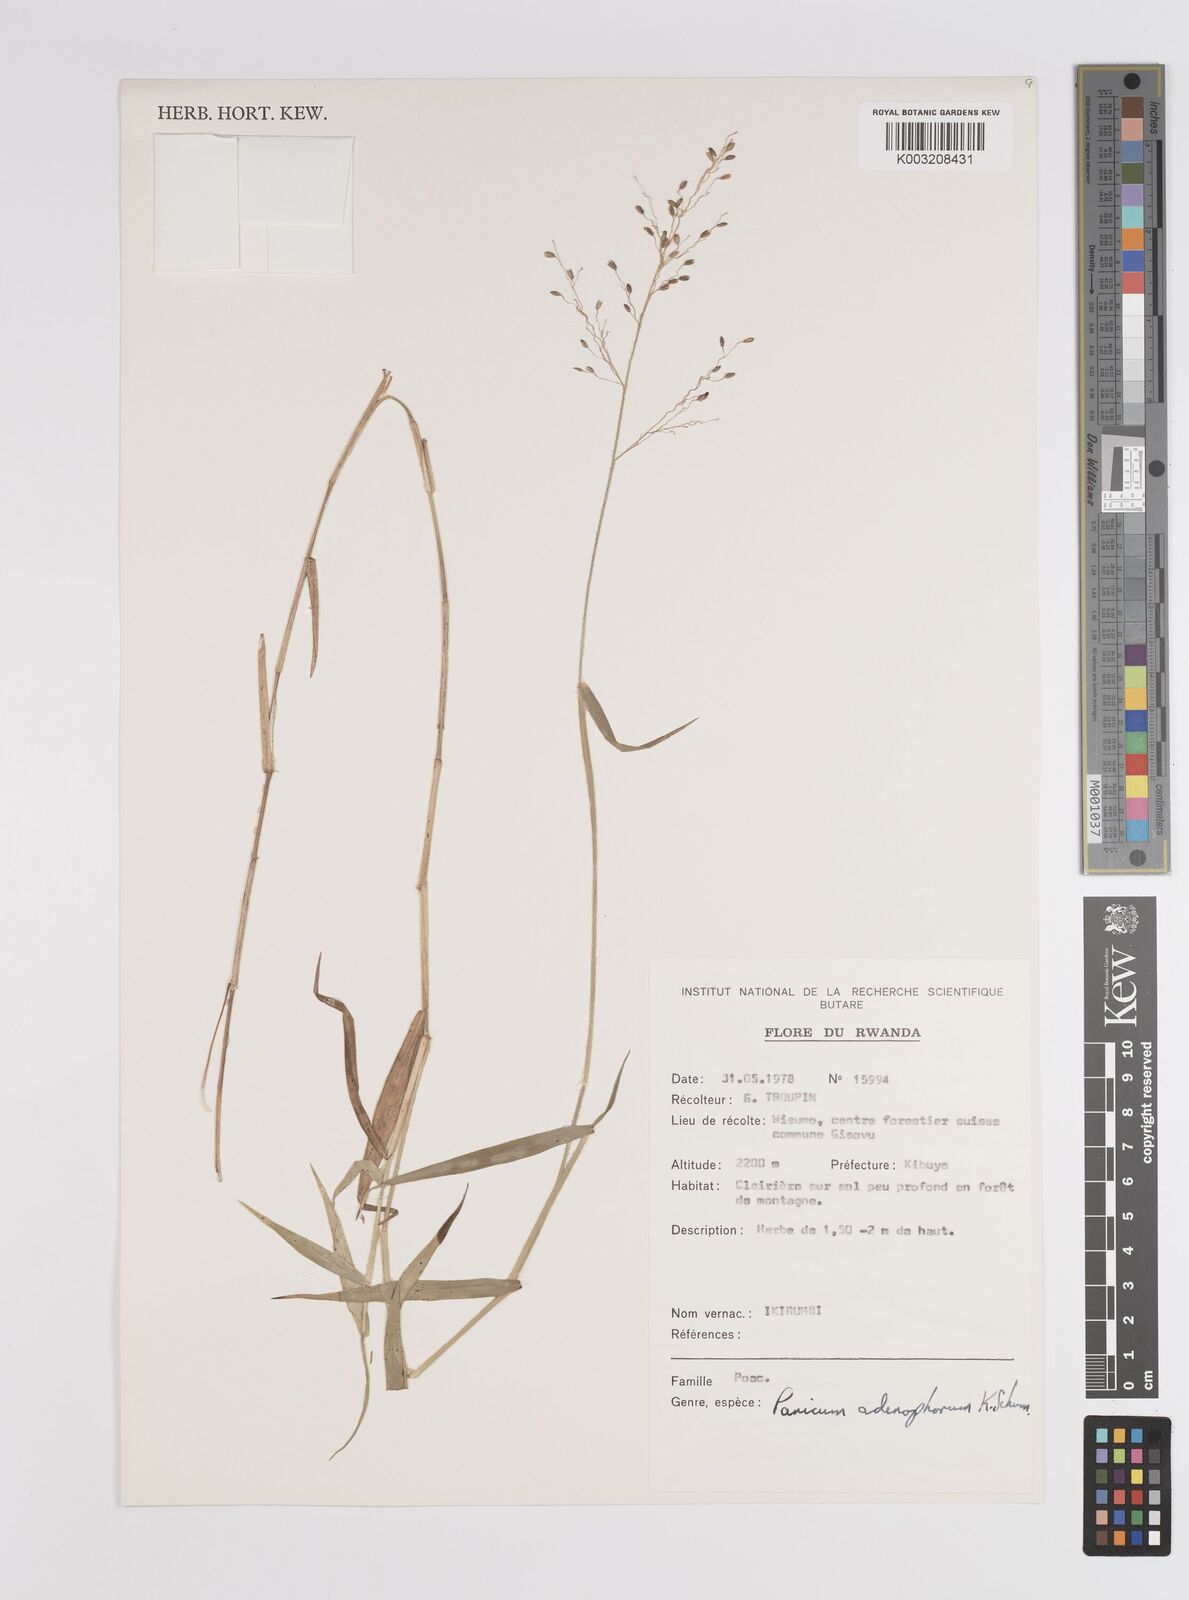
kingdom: Plantae
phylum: Tracheophyta
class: Liliopsida
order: Poales
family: Poaceae
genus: Adenochloa
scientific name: Adenochloa adenophora
